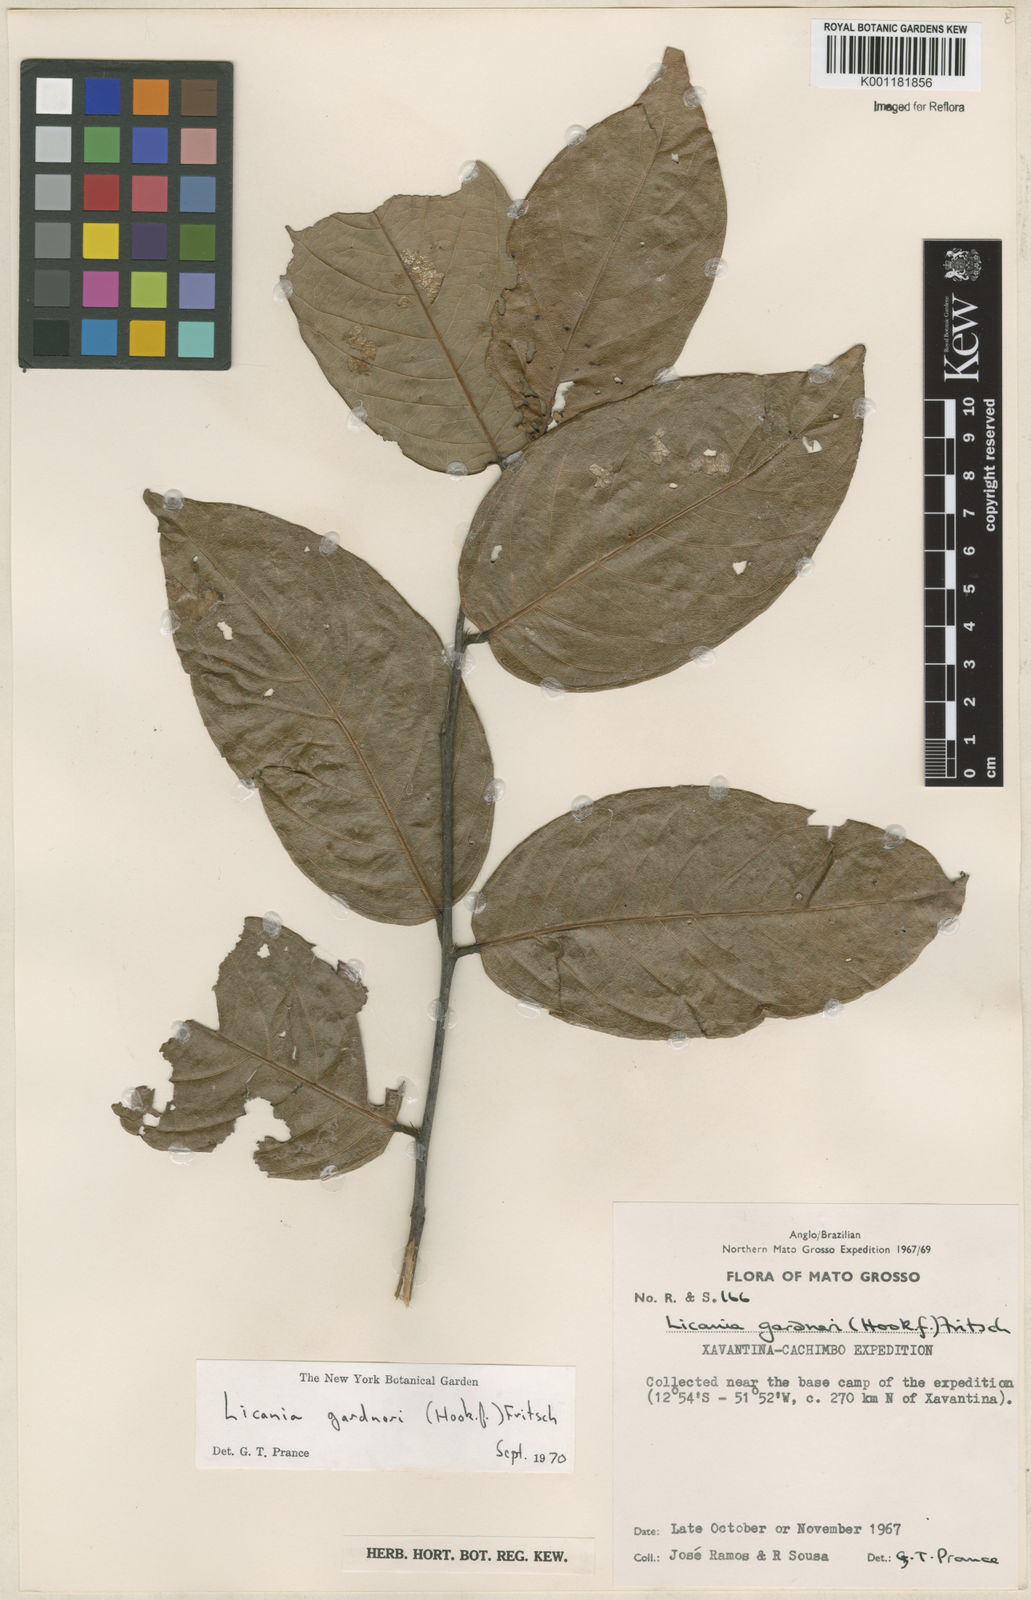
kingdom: Plantae
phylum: Tracheophyta
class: Magnoliopsida
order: Malpighiales
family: Chrysobalanaceae
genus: Leptobalanus
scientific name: Leptobalanus gardneri
